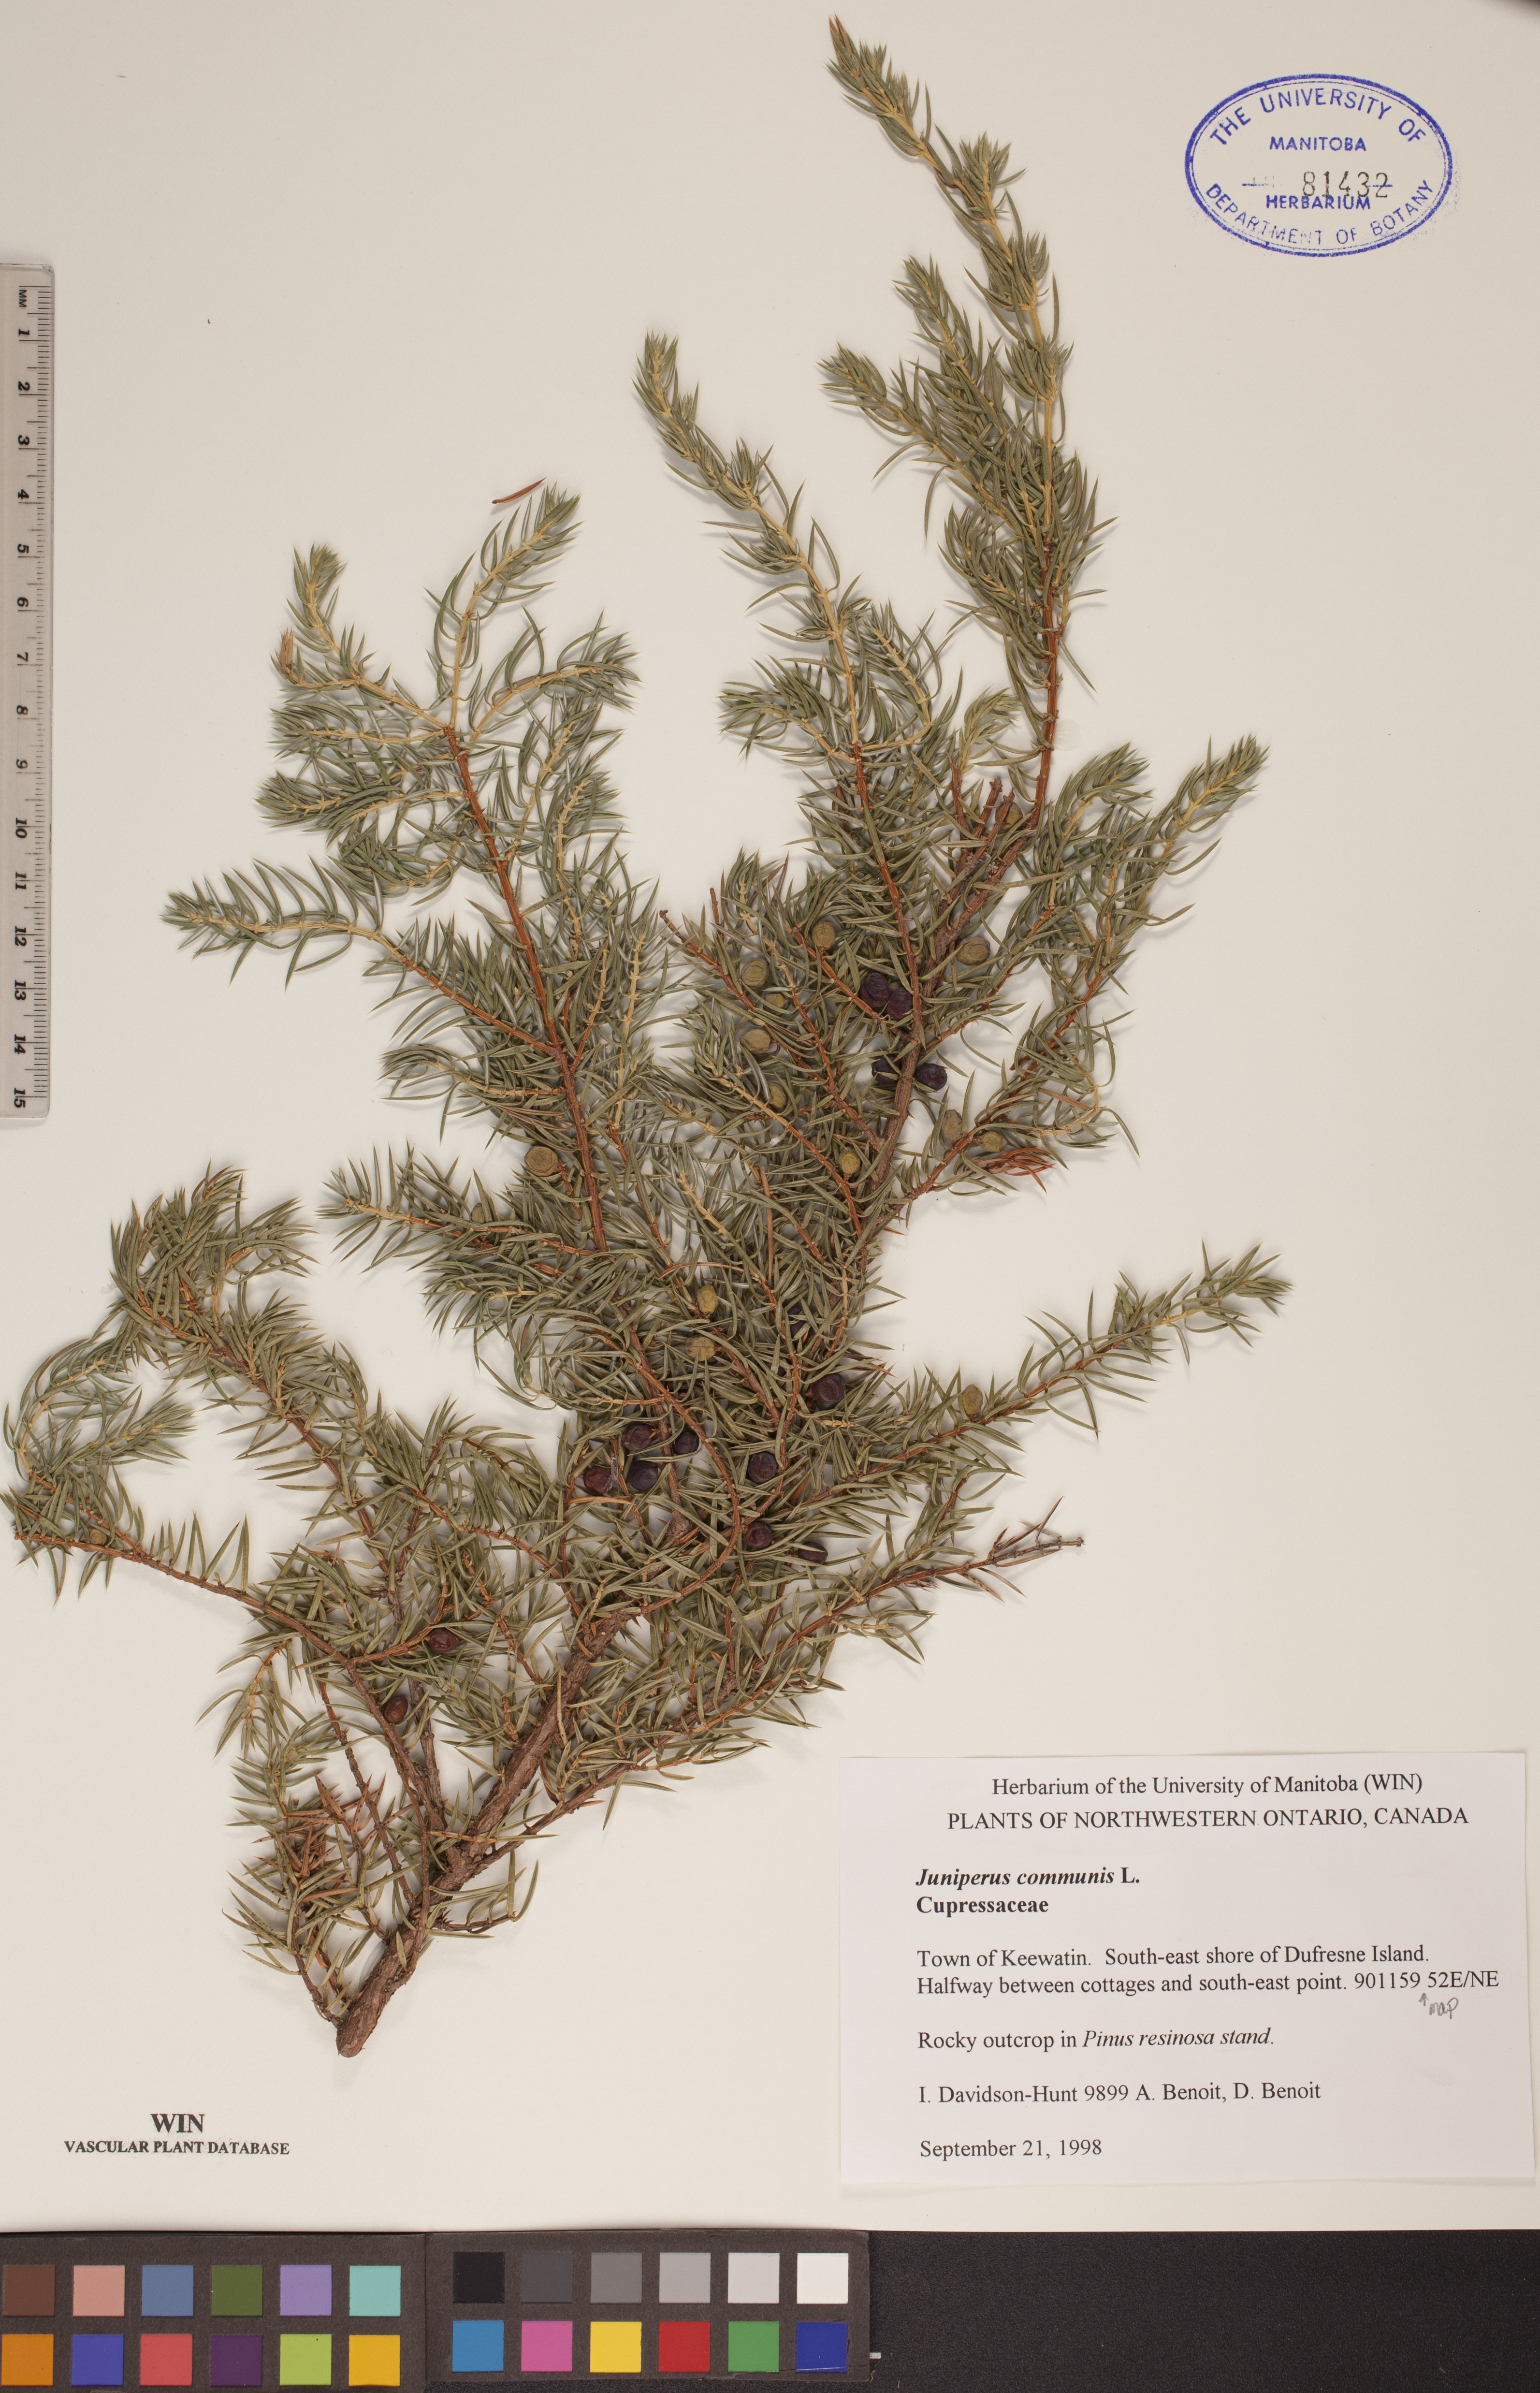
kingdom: Plantae
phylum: Tracheophyta
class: Pinopsida
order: Pinales
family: Cupressaceae
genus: Juniperus
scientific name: Juniperus communis
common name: Common juniper
